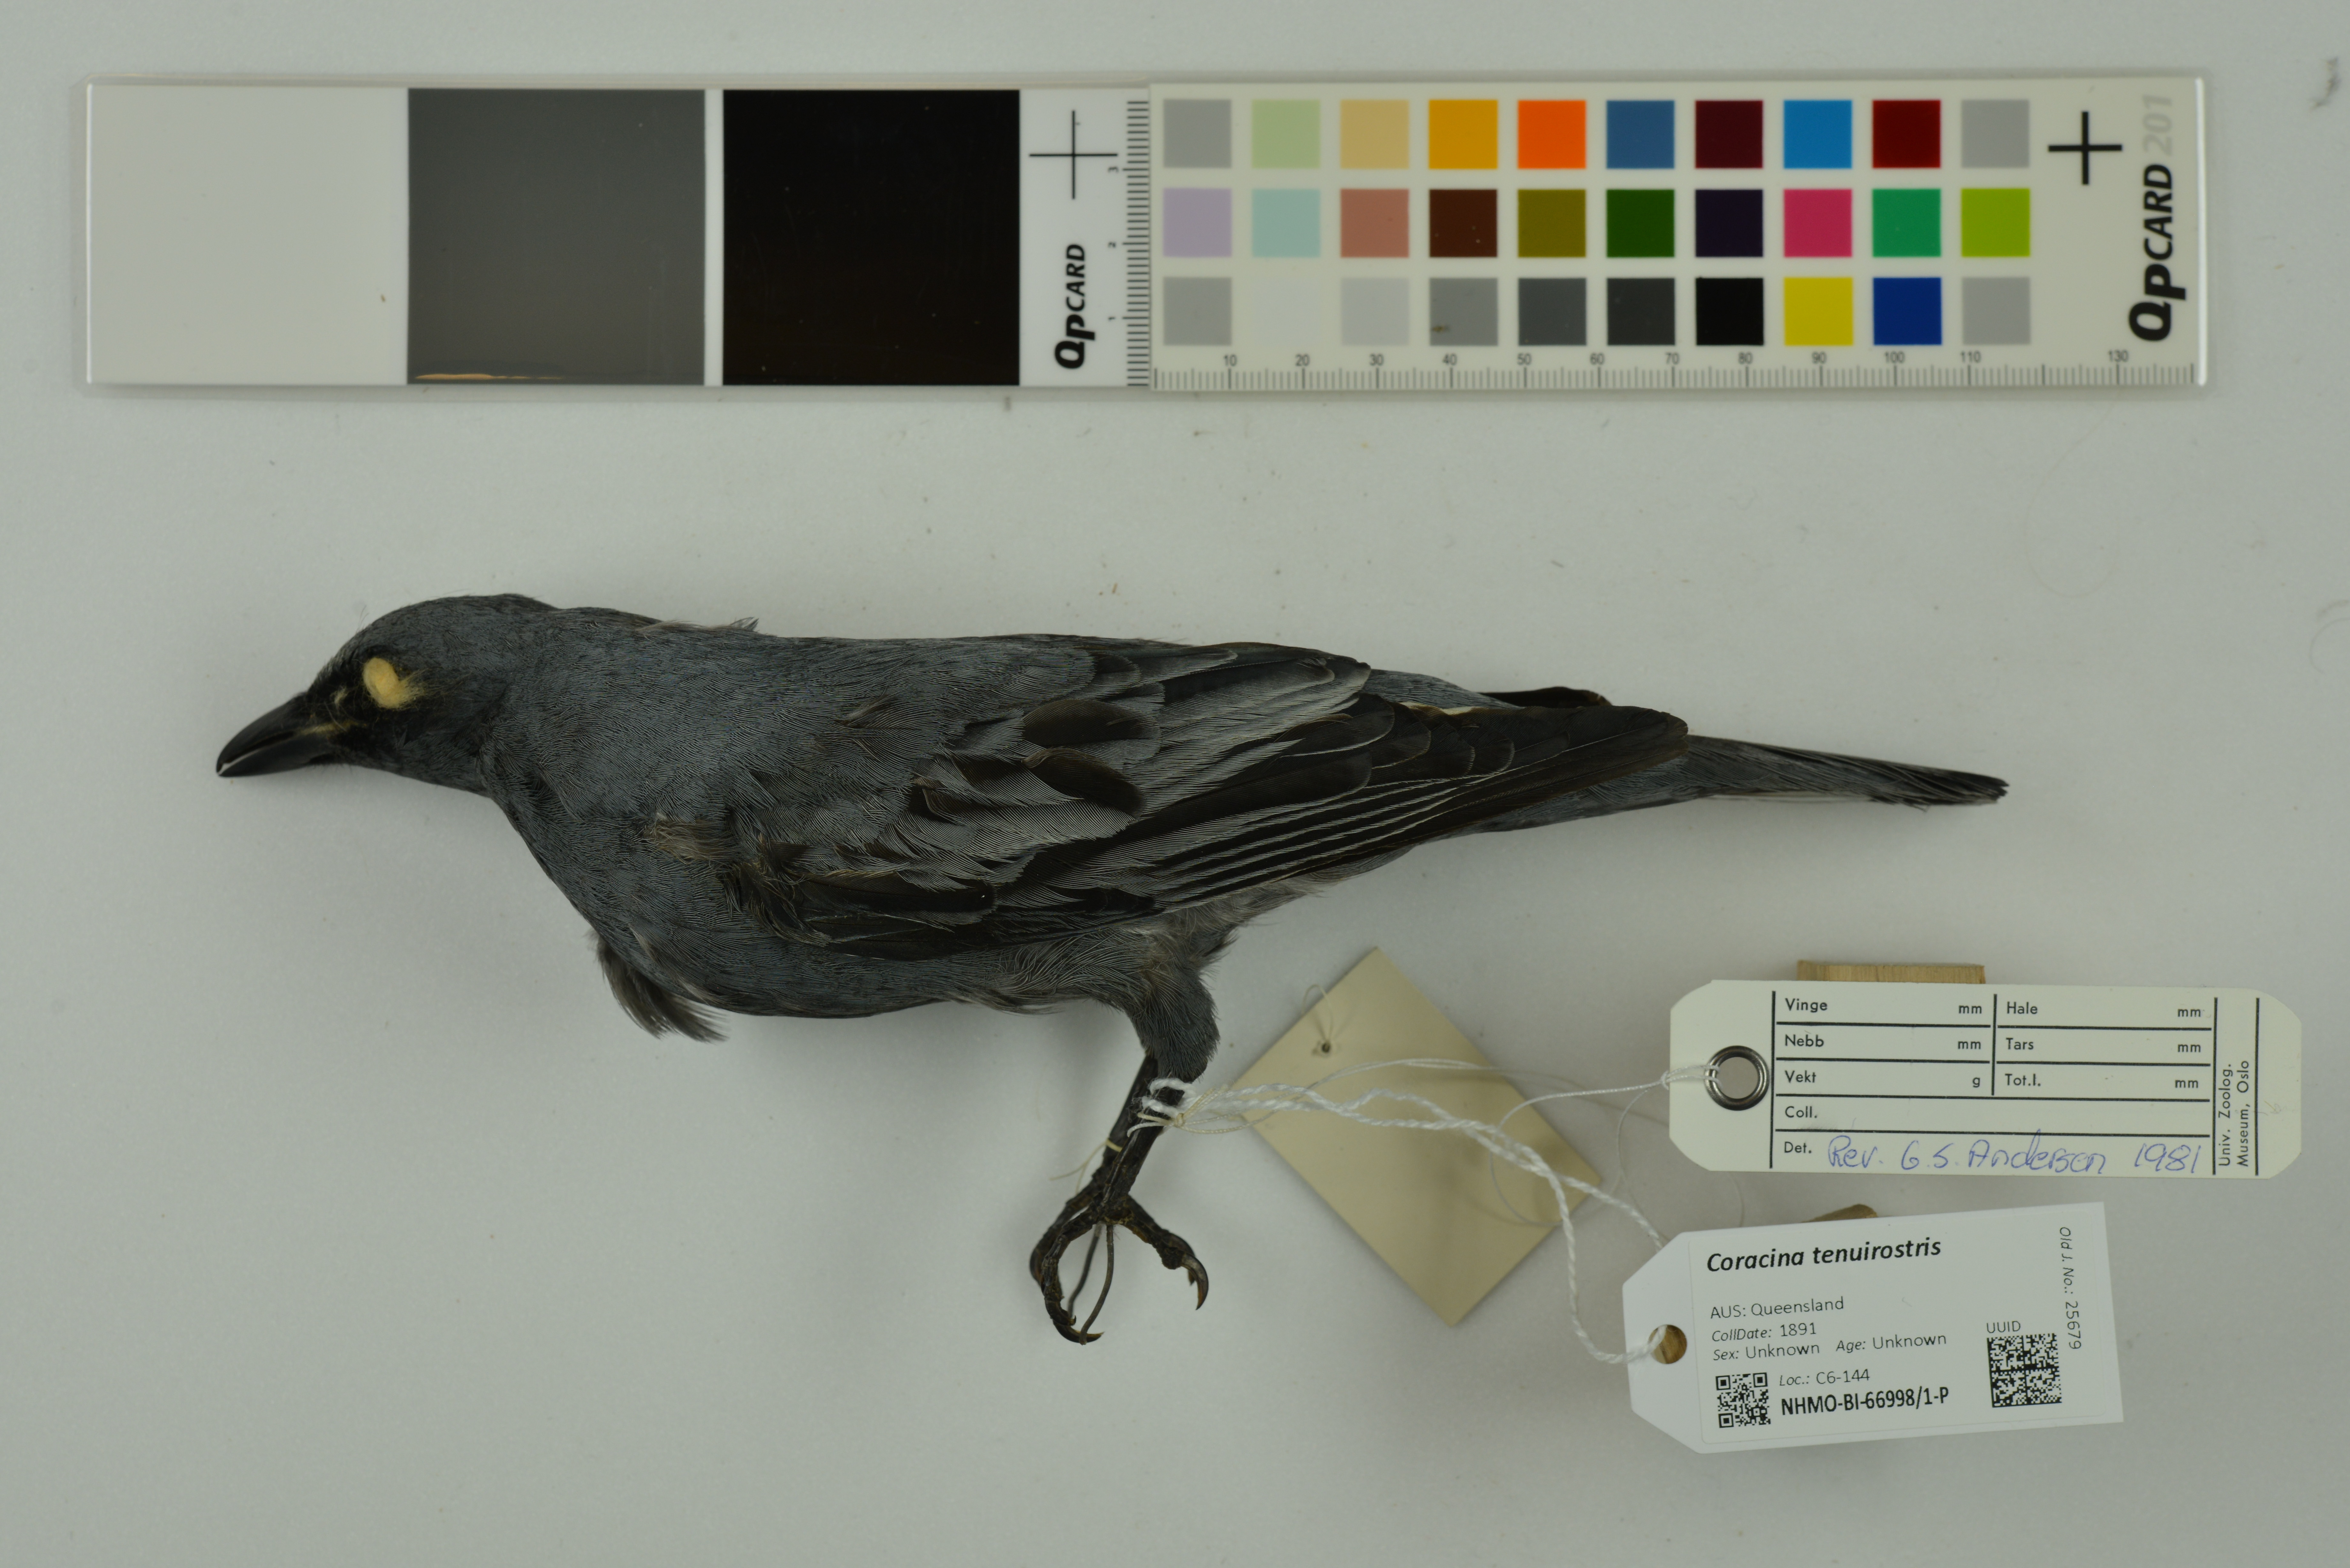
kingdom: Animalia
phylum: Chordata
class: Aves
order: Passeriformes
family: Campephagidae
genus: Edolisoma
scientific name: Edolisoma tenuirostre
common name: Common cicadabird
